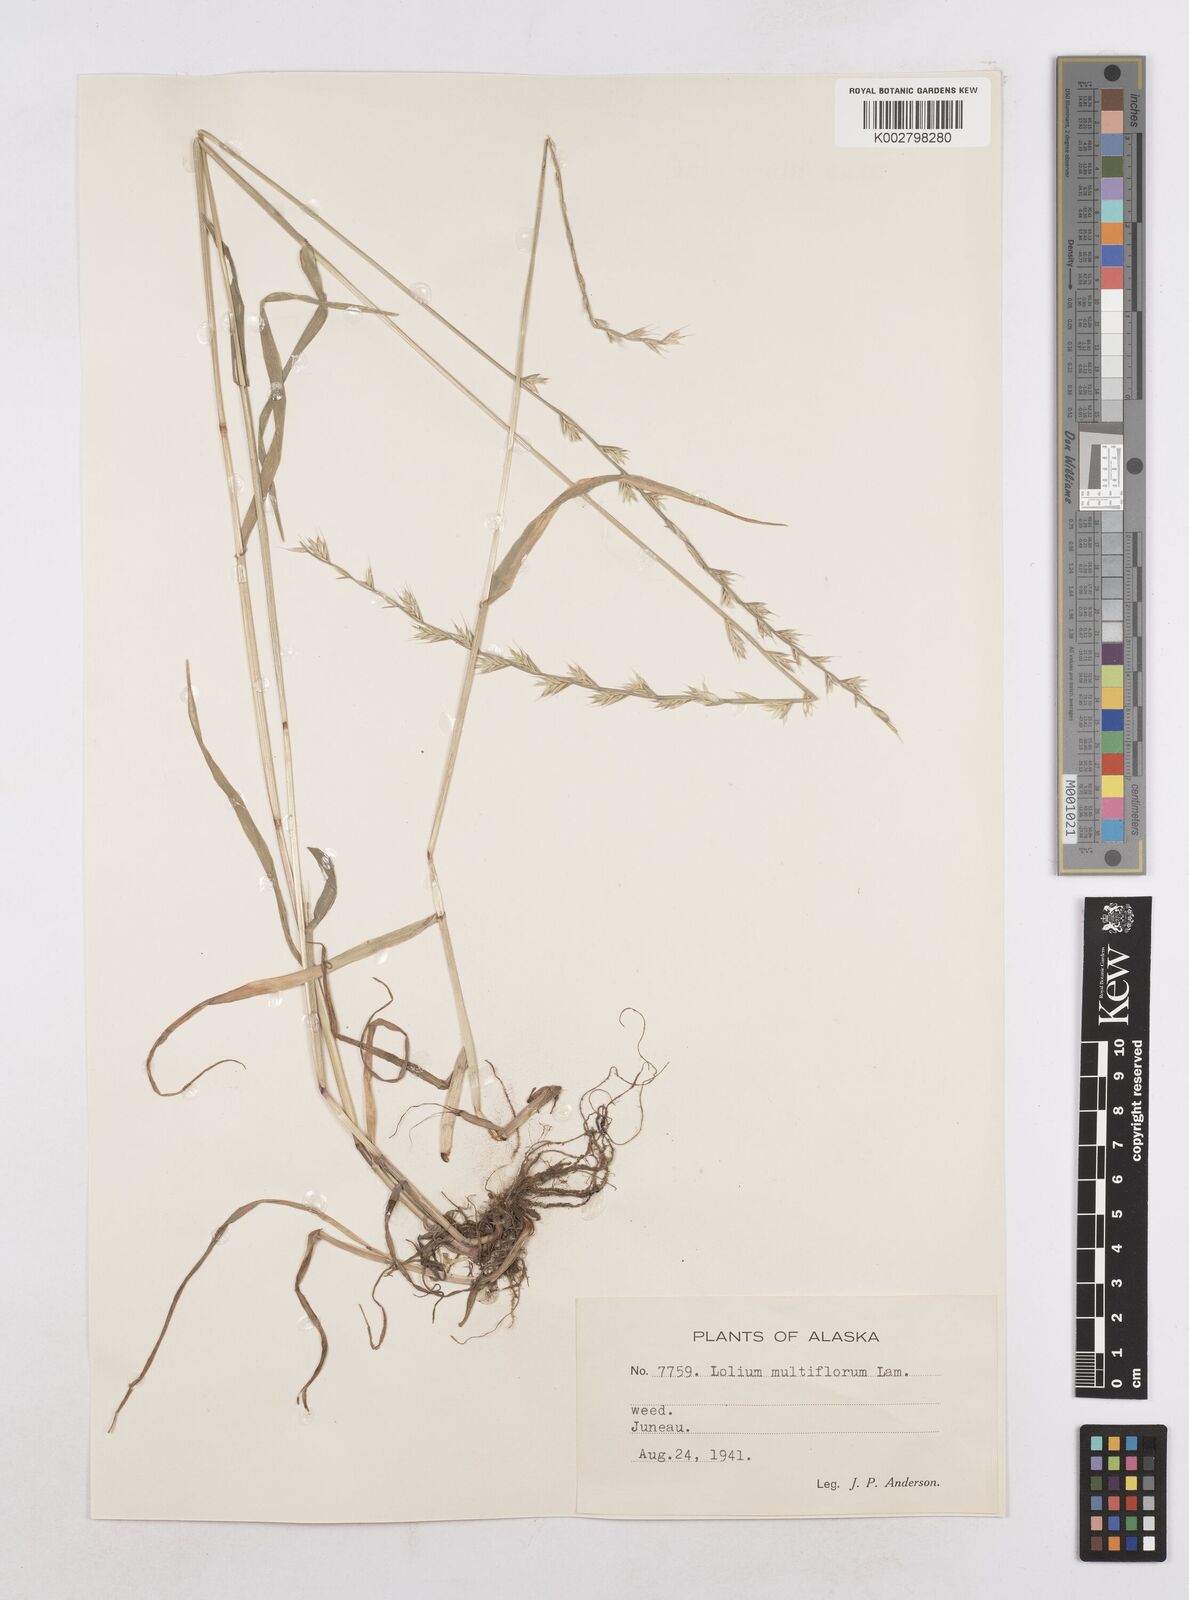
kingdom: Plantae
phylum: Tracheophyta
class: Liliopsida
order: Poales
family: Poaceae
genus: Lolium
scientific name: Lolium multiflorum
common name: Annual ryegrass
